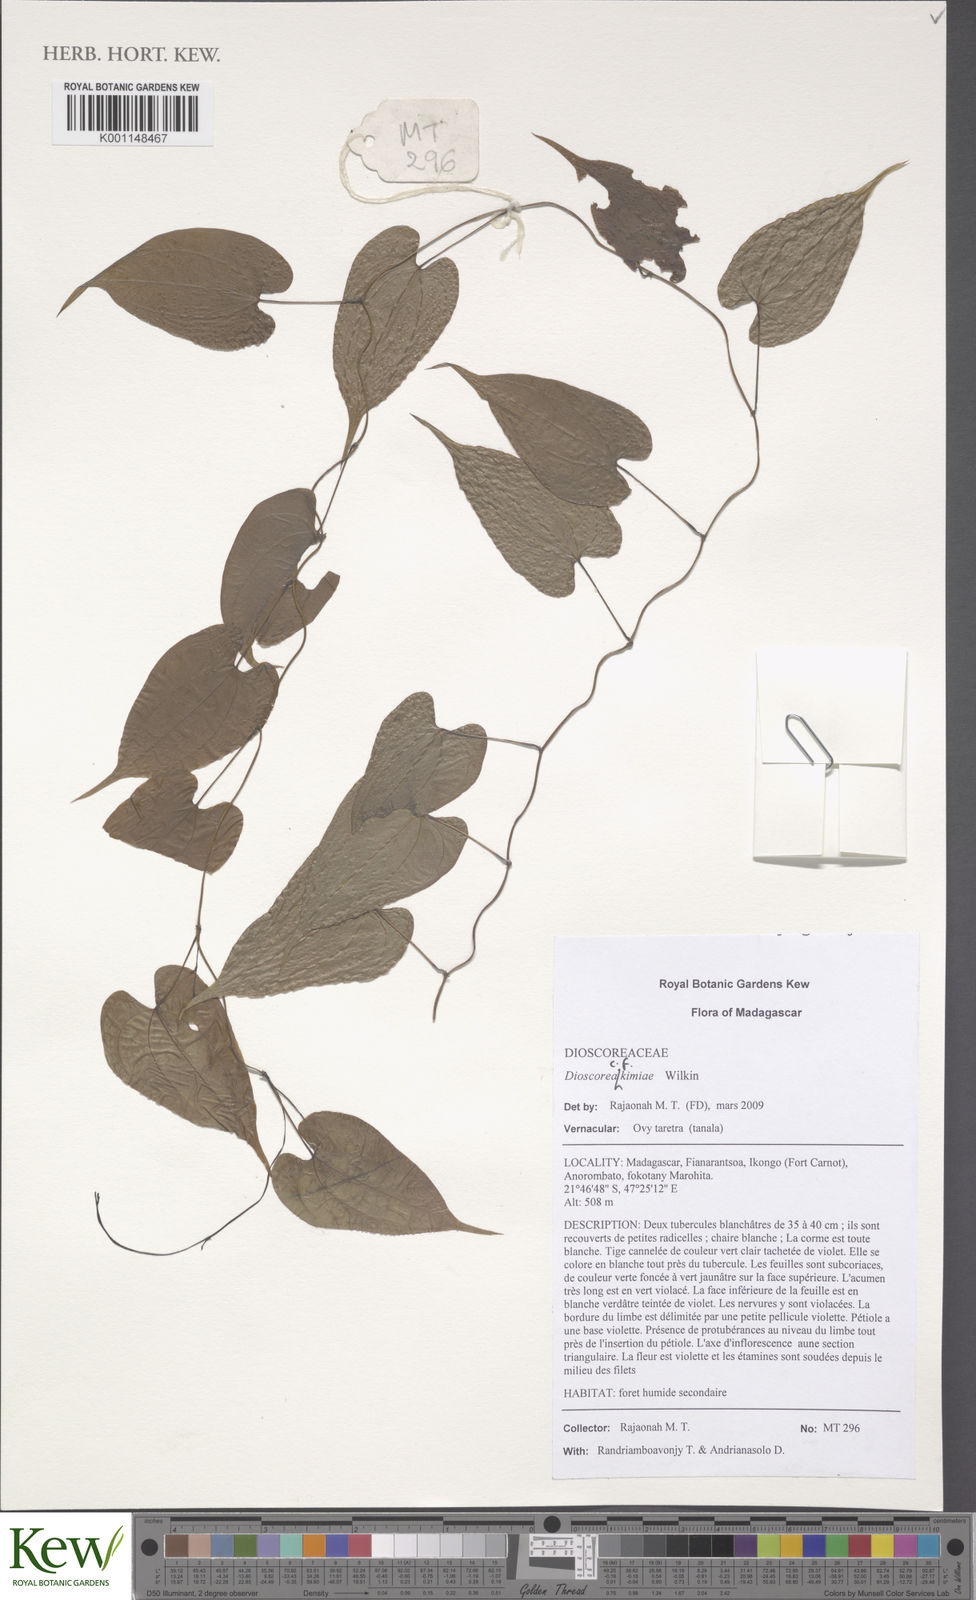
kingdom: Plantae
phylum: Tracheophyta
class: Liliopsida
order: Dioscoreales
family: Dioscoreaceae
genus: Dioscorea
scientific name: Dioscorea kimiae
